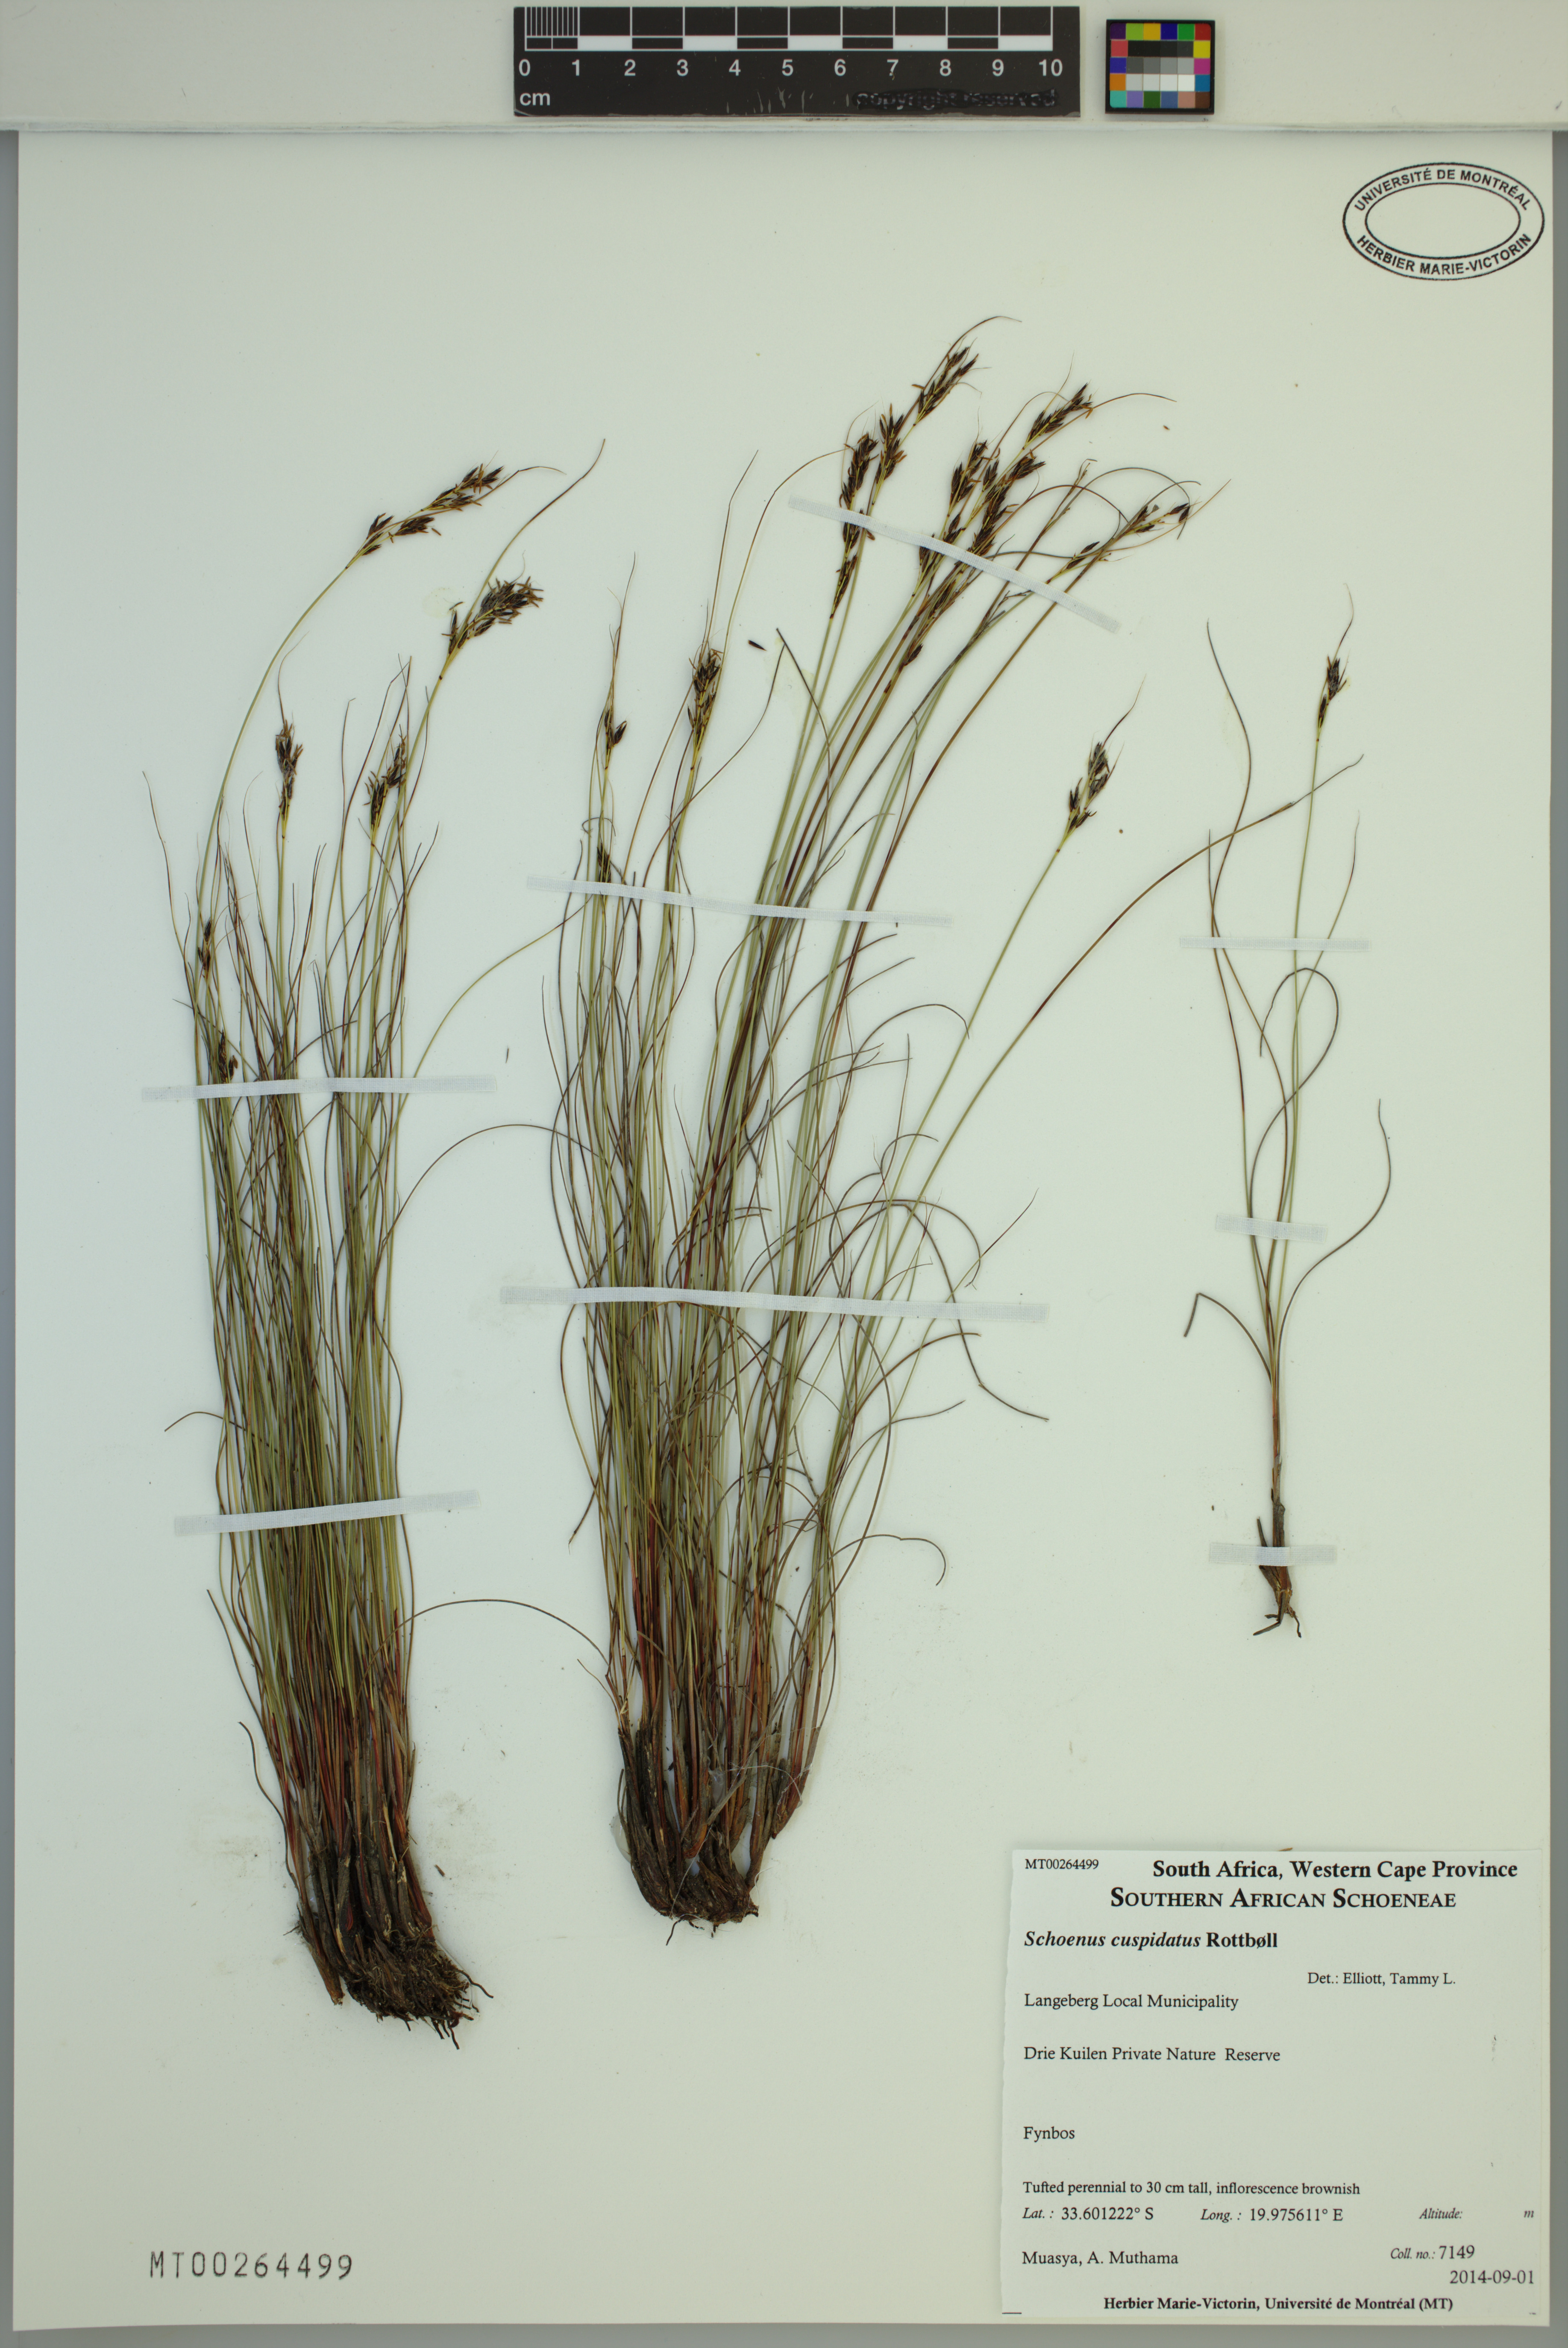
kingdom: Plantae
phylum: Tracheophyta
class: Liliopsida
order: Poales
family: Cyperaceae
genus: Schoenus
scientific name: Schoenus cuspidatus
